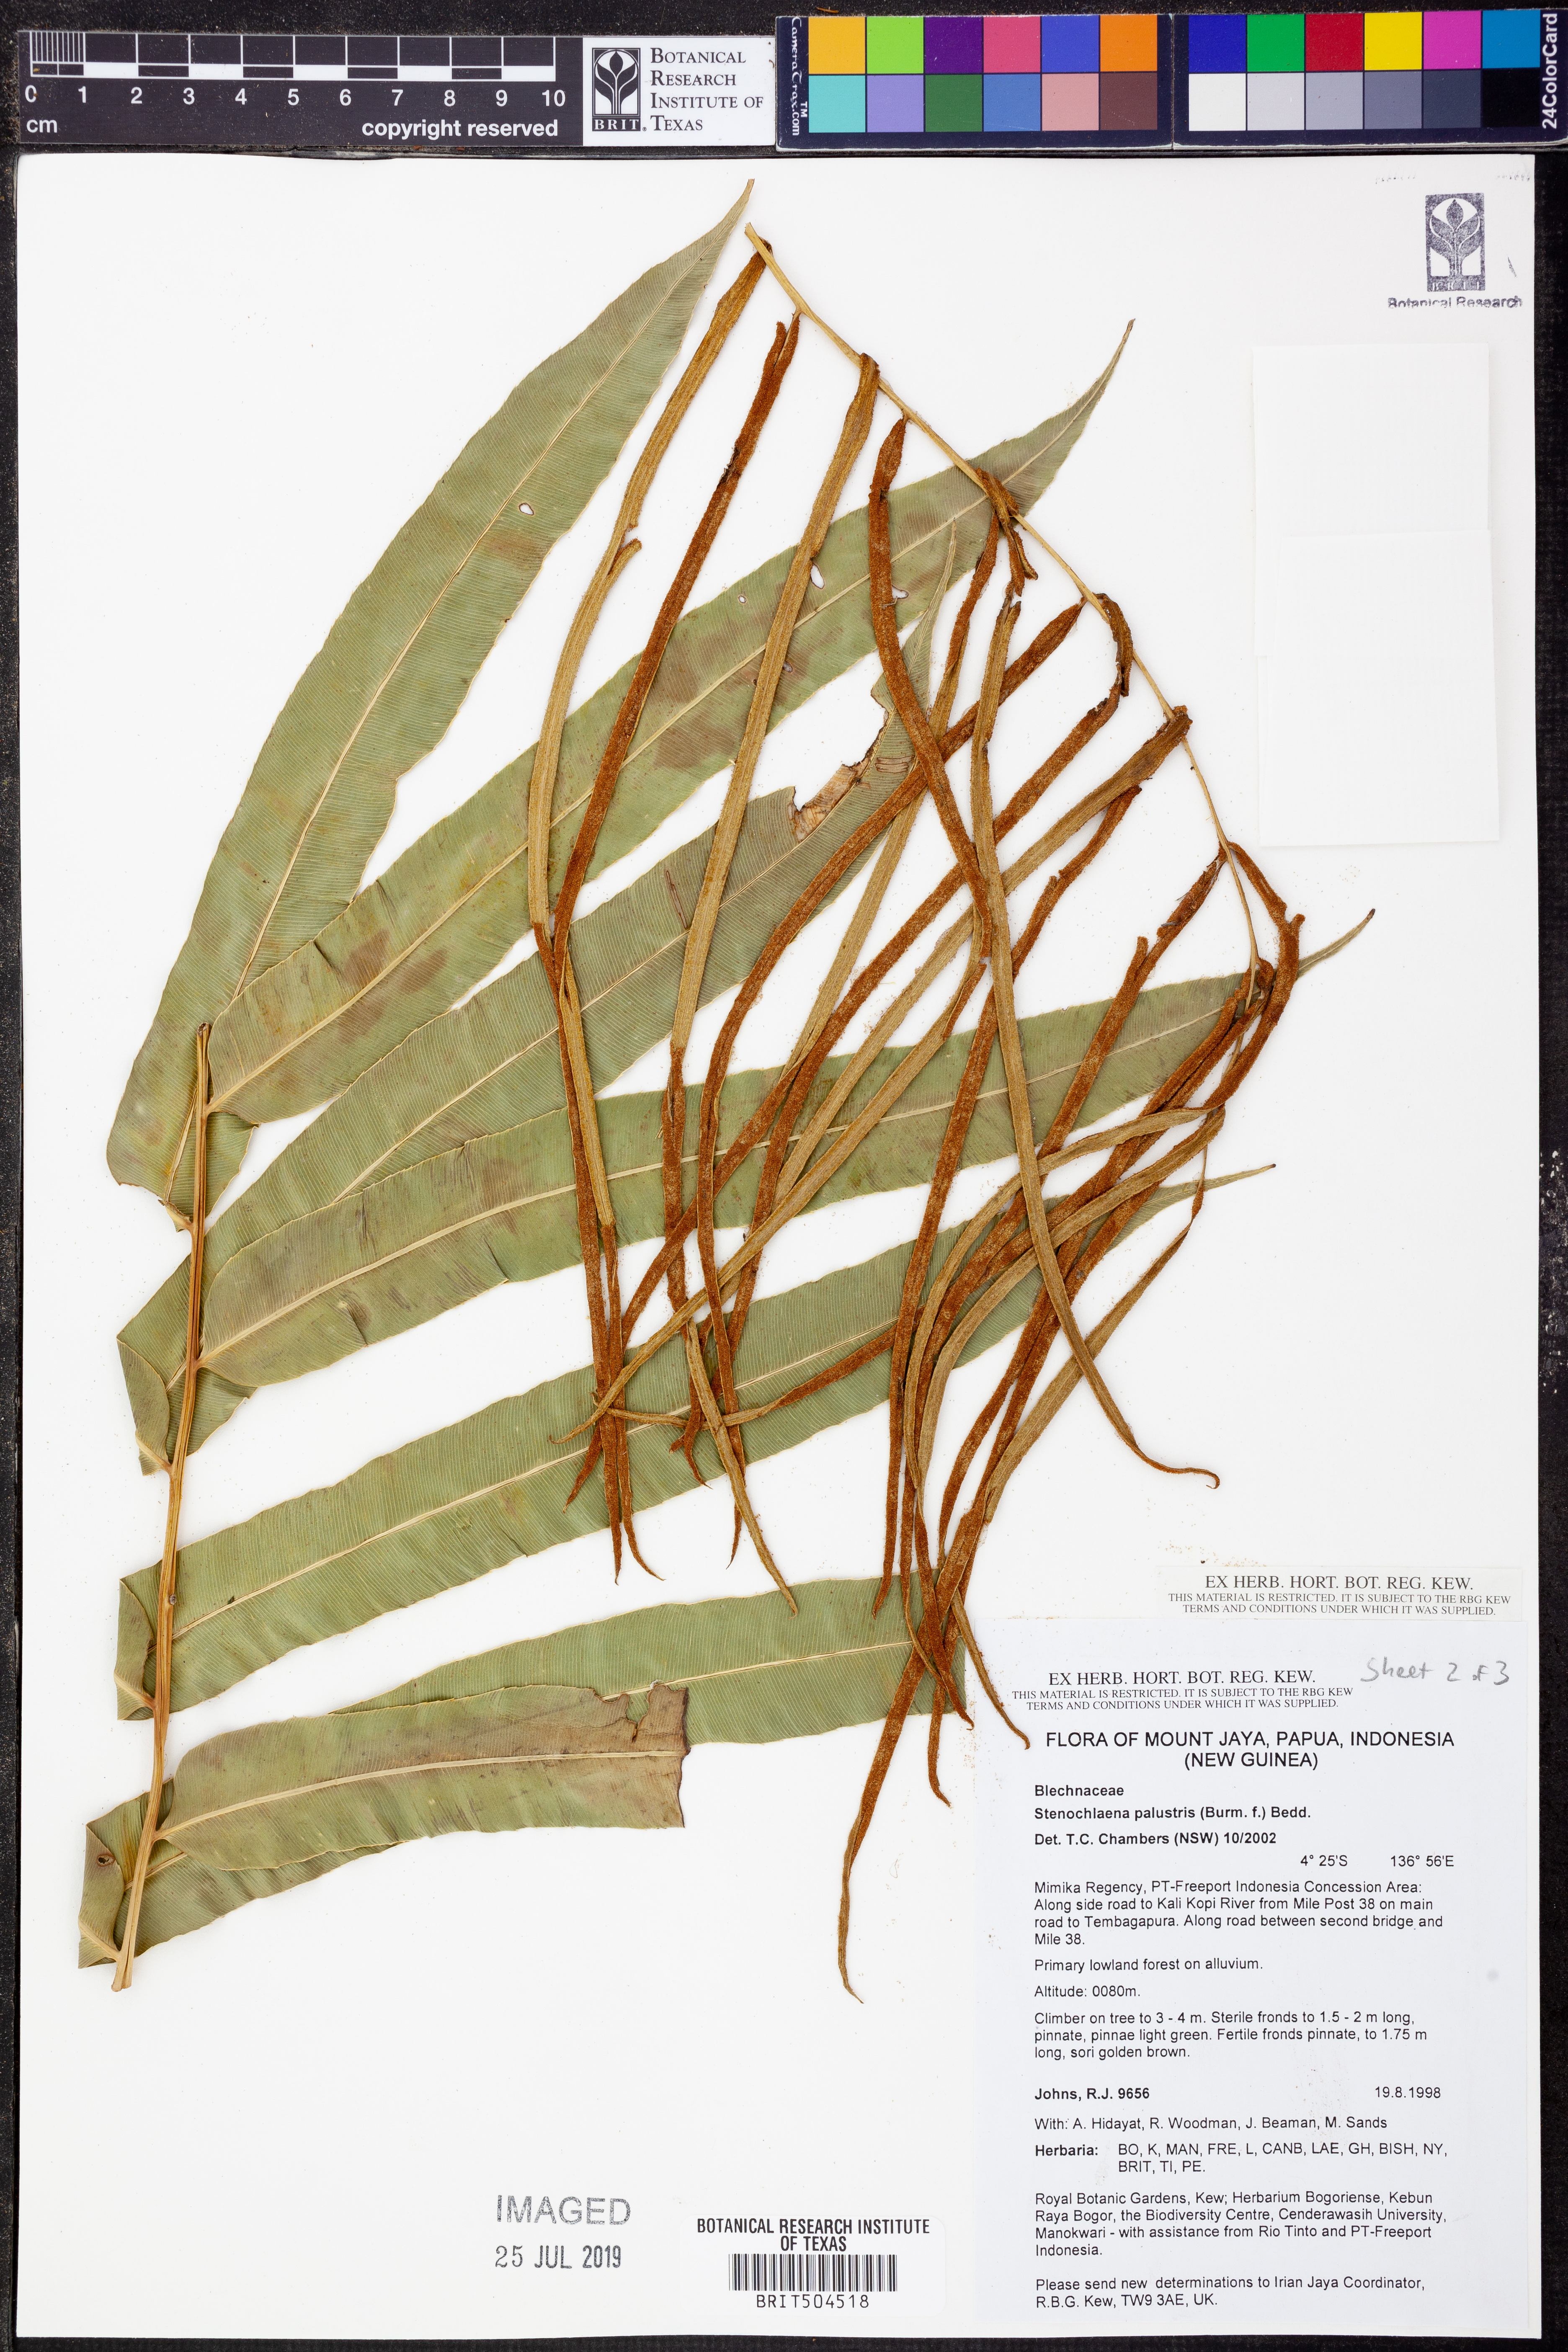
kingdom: Plantae
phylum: Tracheophyta
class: Polypodiopsida
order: Polypodiales
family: Blechnaceae
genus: Stenochlaena
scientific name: Stenochlaena palustris
